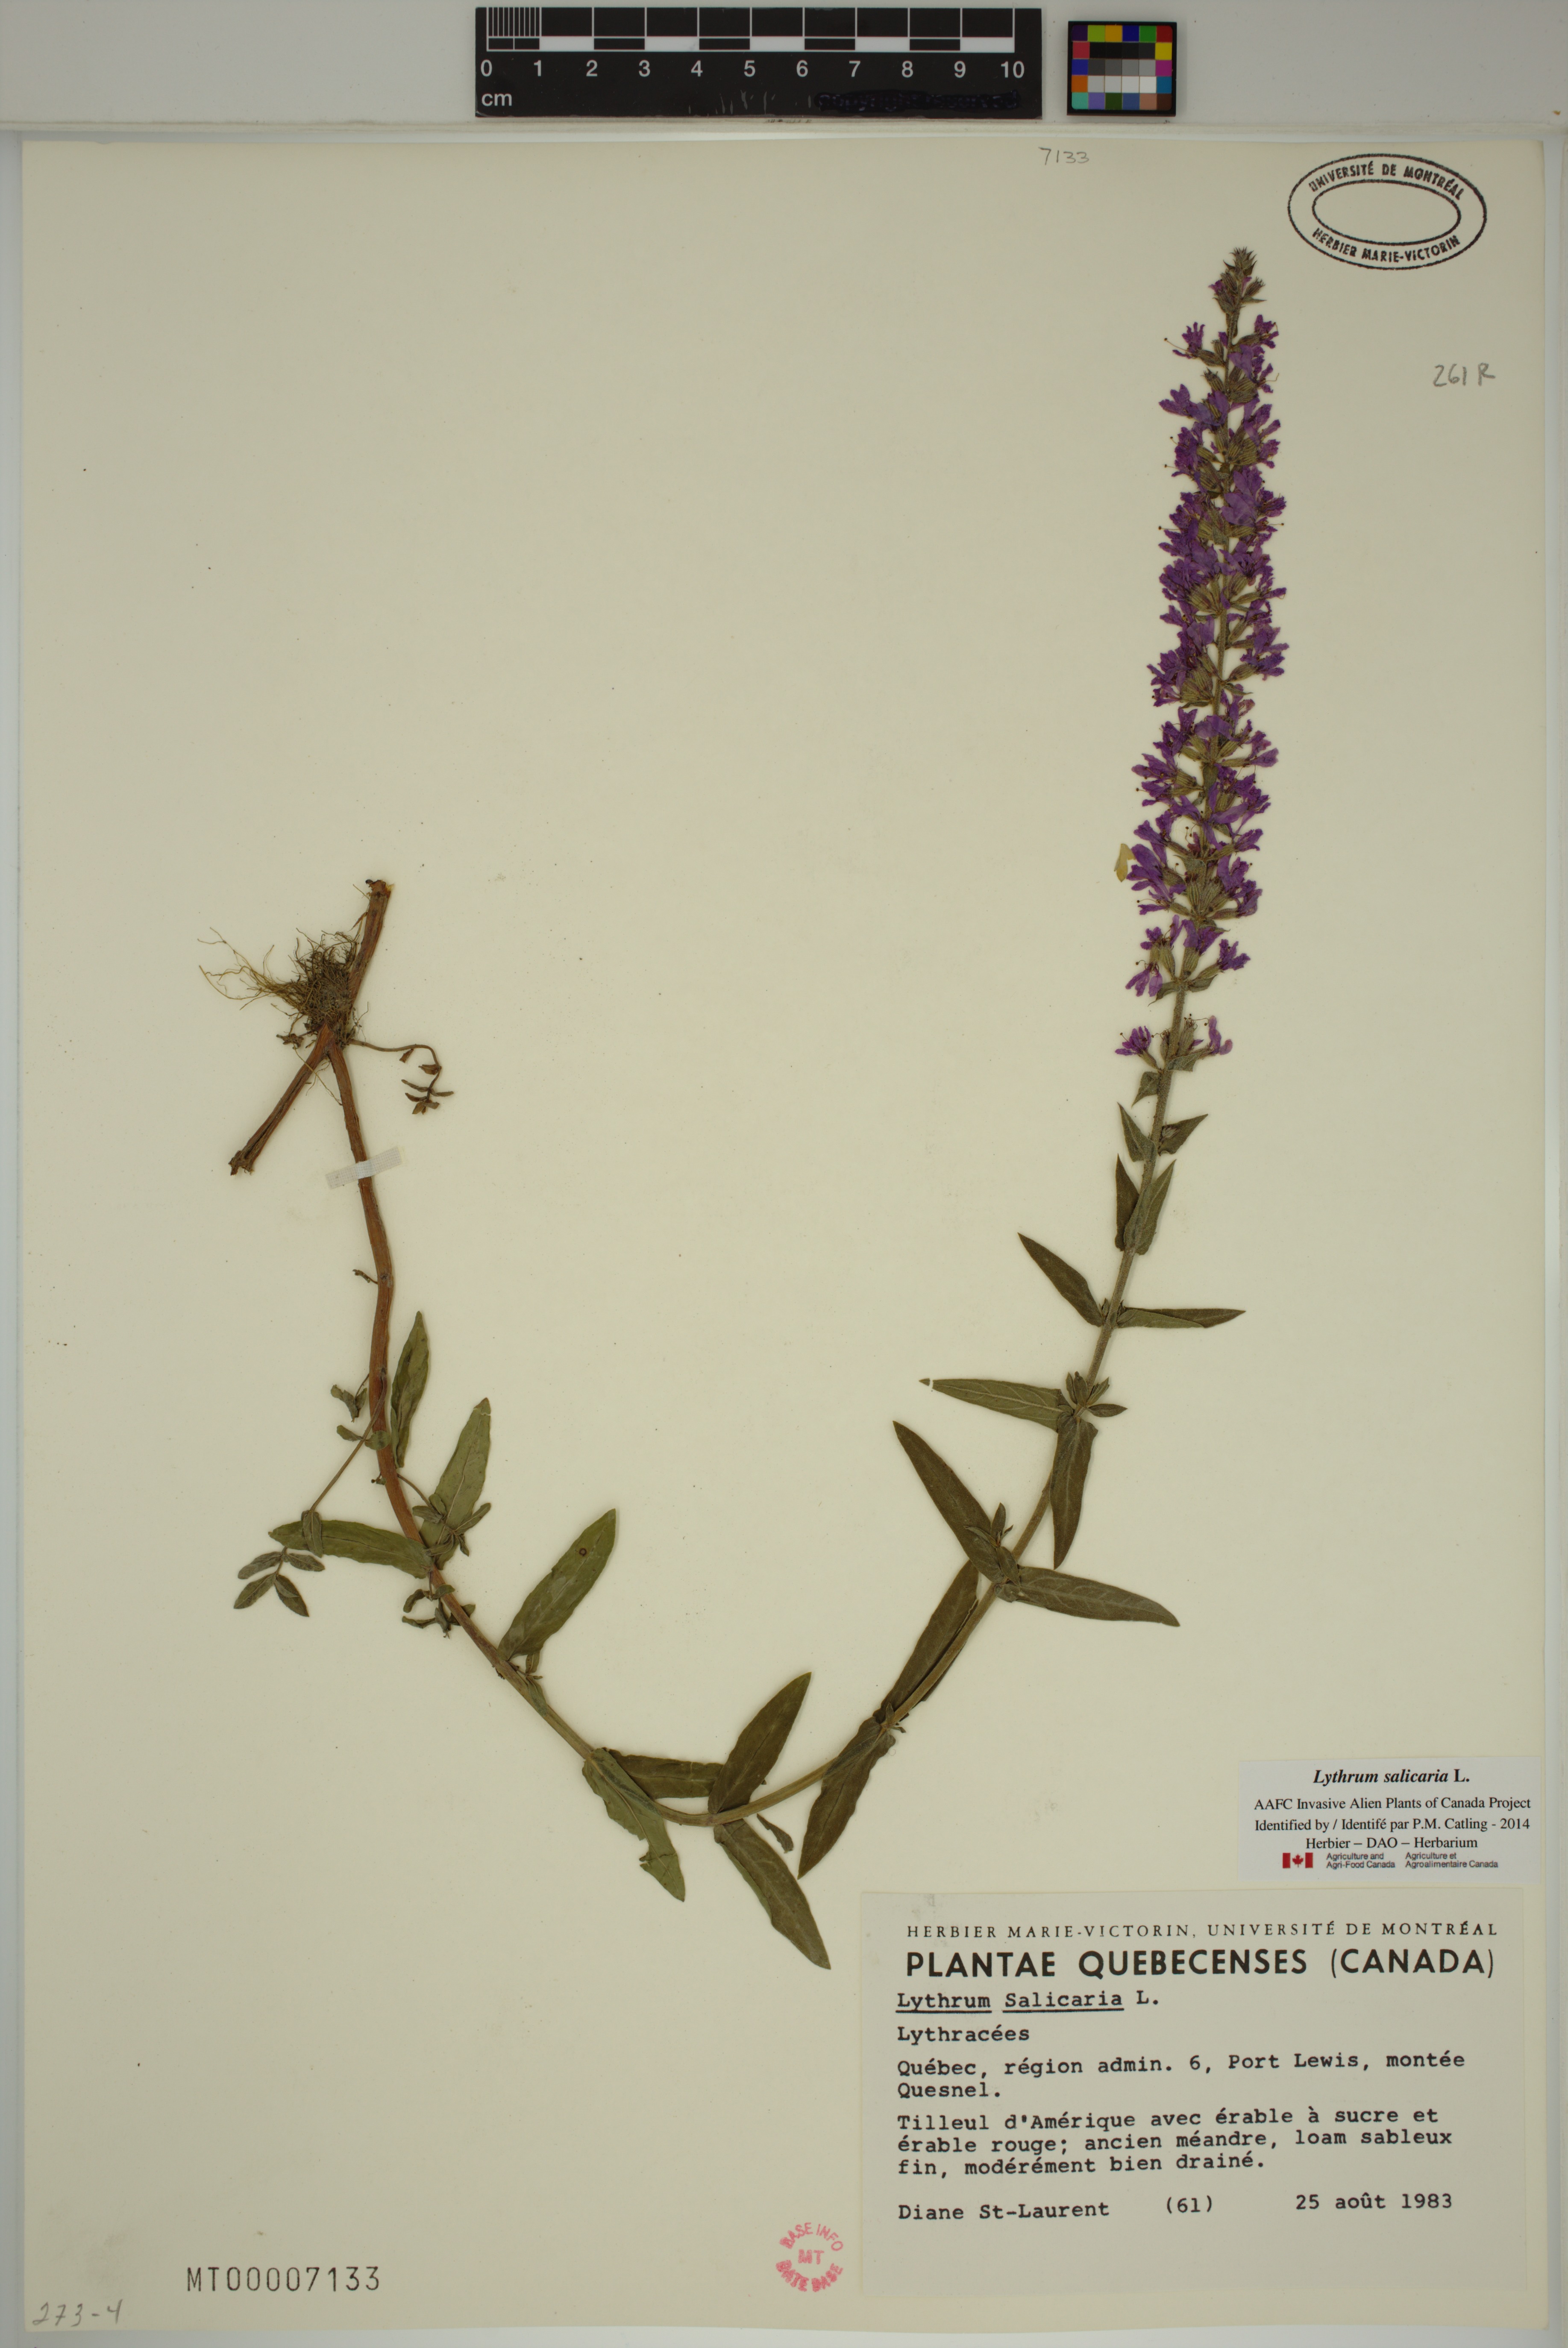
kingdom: Plantae
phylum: Tracheophyta
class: Magnoliopsida
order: Myrtales
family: Lythraceae
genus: Lythrum
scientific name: Lythrum salicaria
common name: Purple loosestrife
